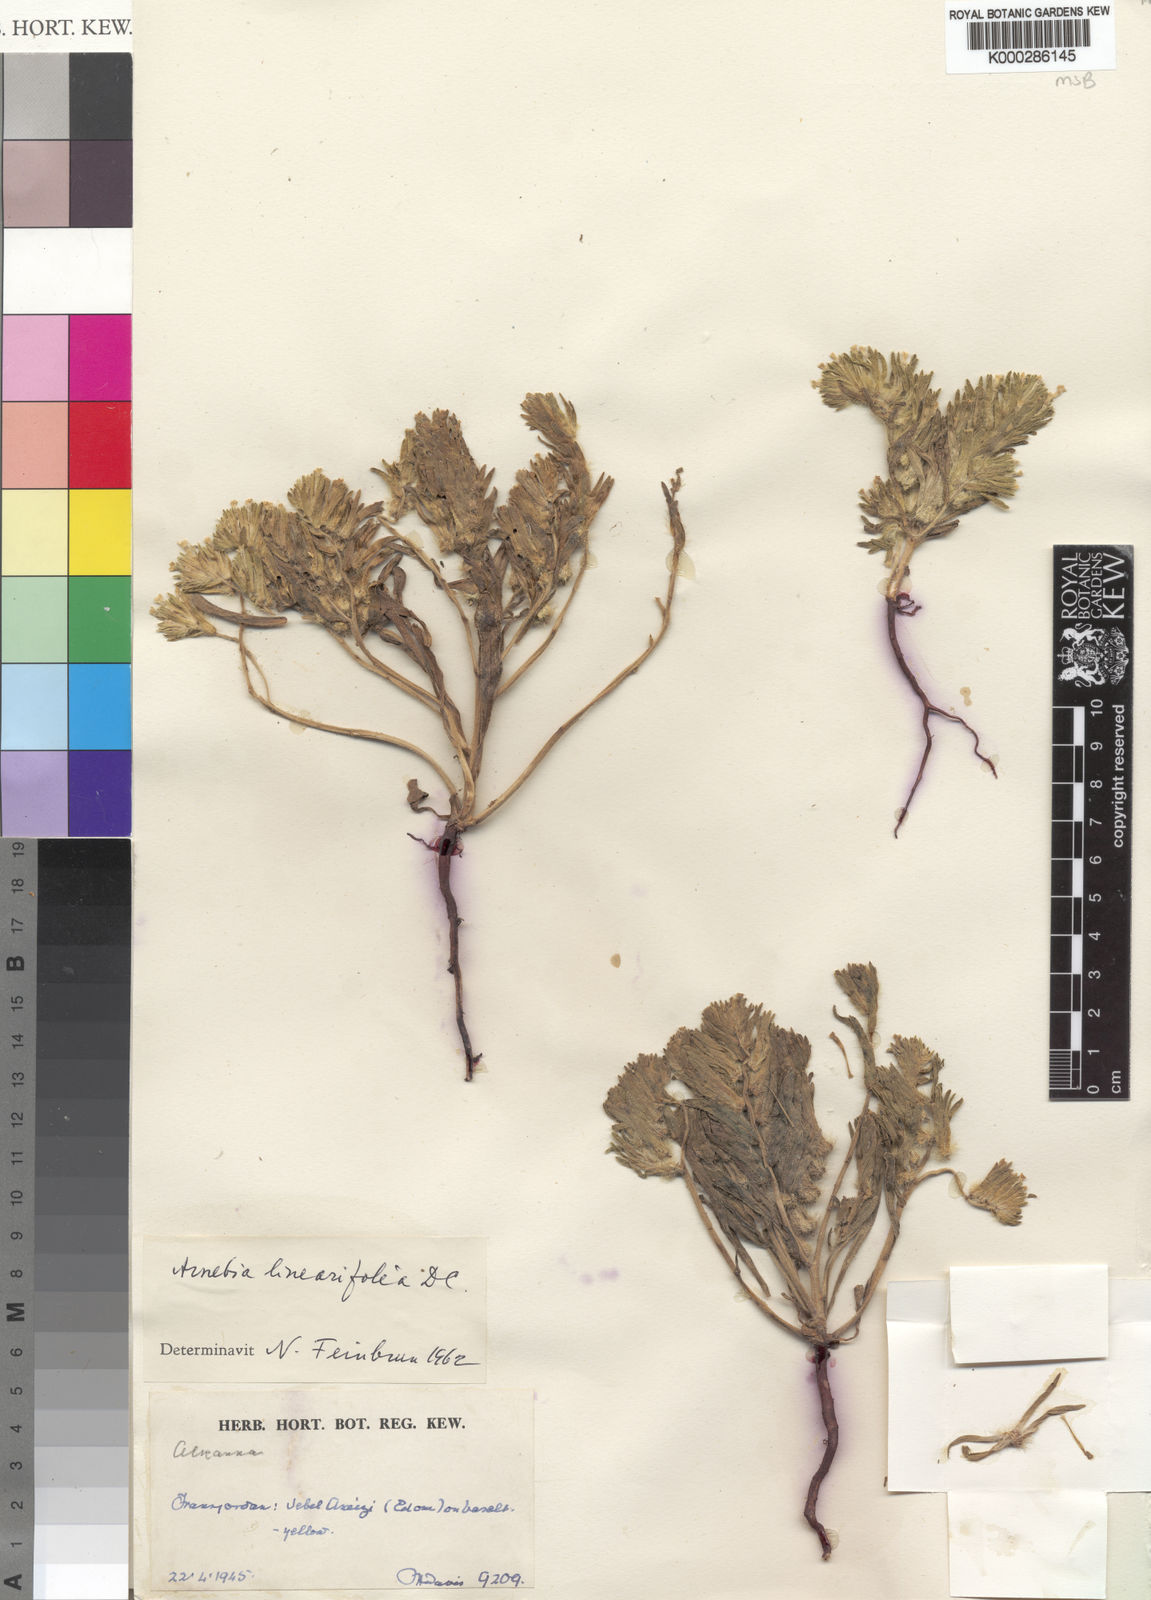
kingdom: Plantae
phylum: Tracheophyta
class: Magnoliopsida
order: Boraginales
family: Boraginaceae
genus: Arnebia
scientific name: Arnebia linearifolia
